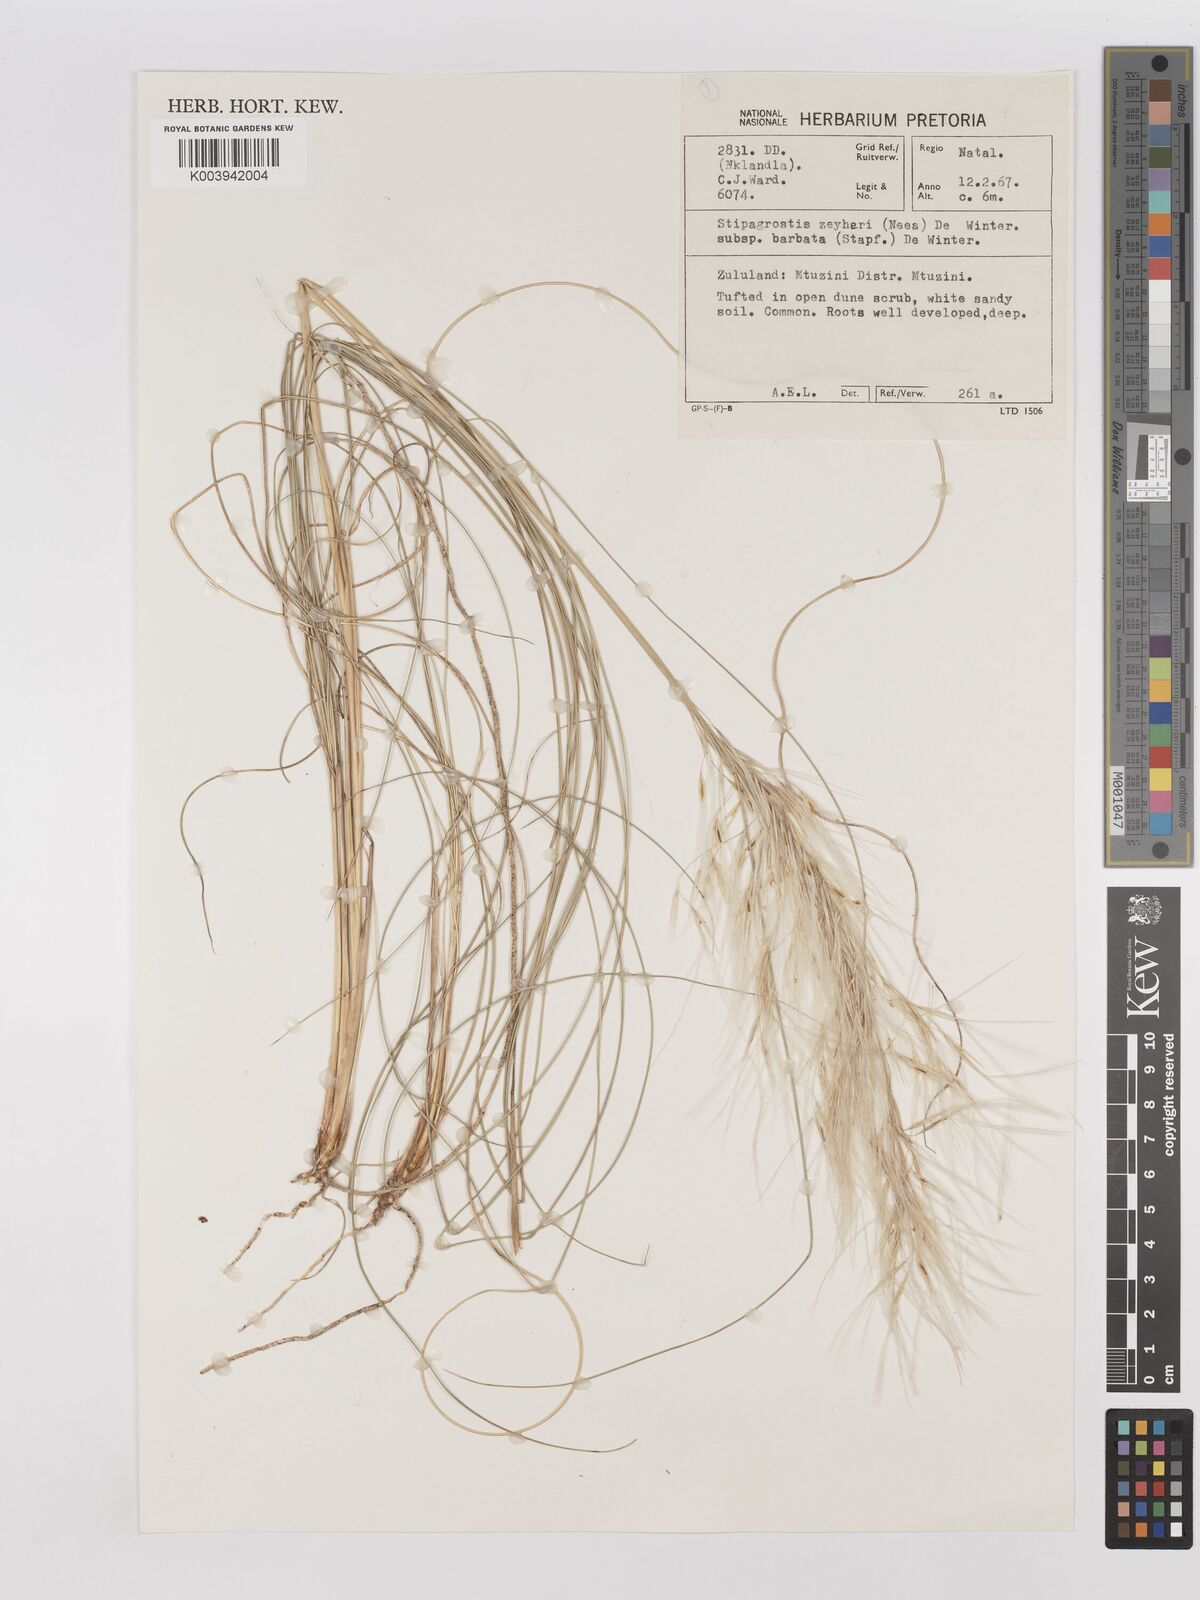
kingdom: Plantae
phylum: Tracheophyta
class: Liliopsida
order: Poales
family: Poaceae
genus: Stipagrostis
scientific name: Stipagrostis zeyheri
